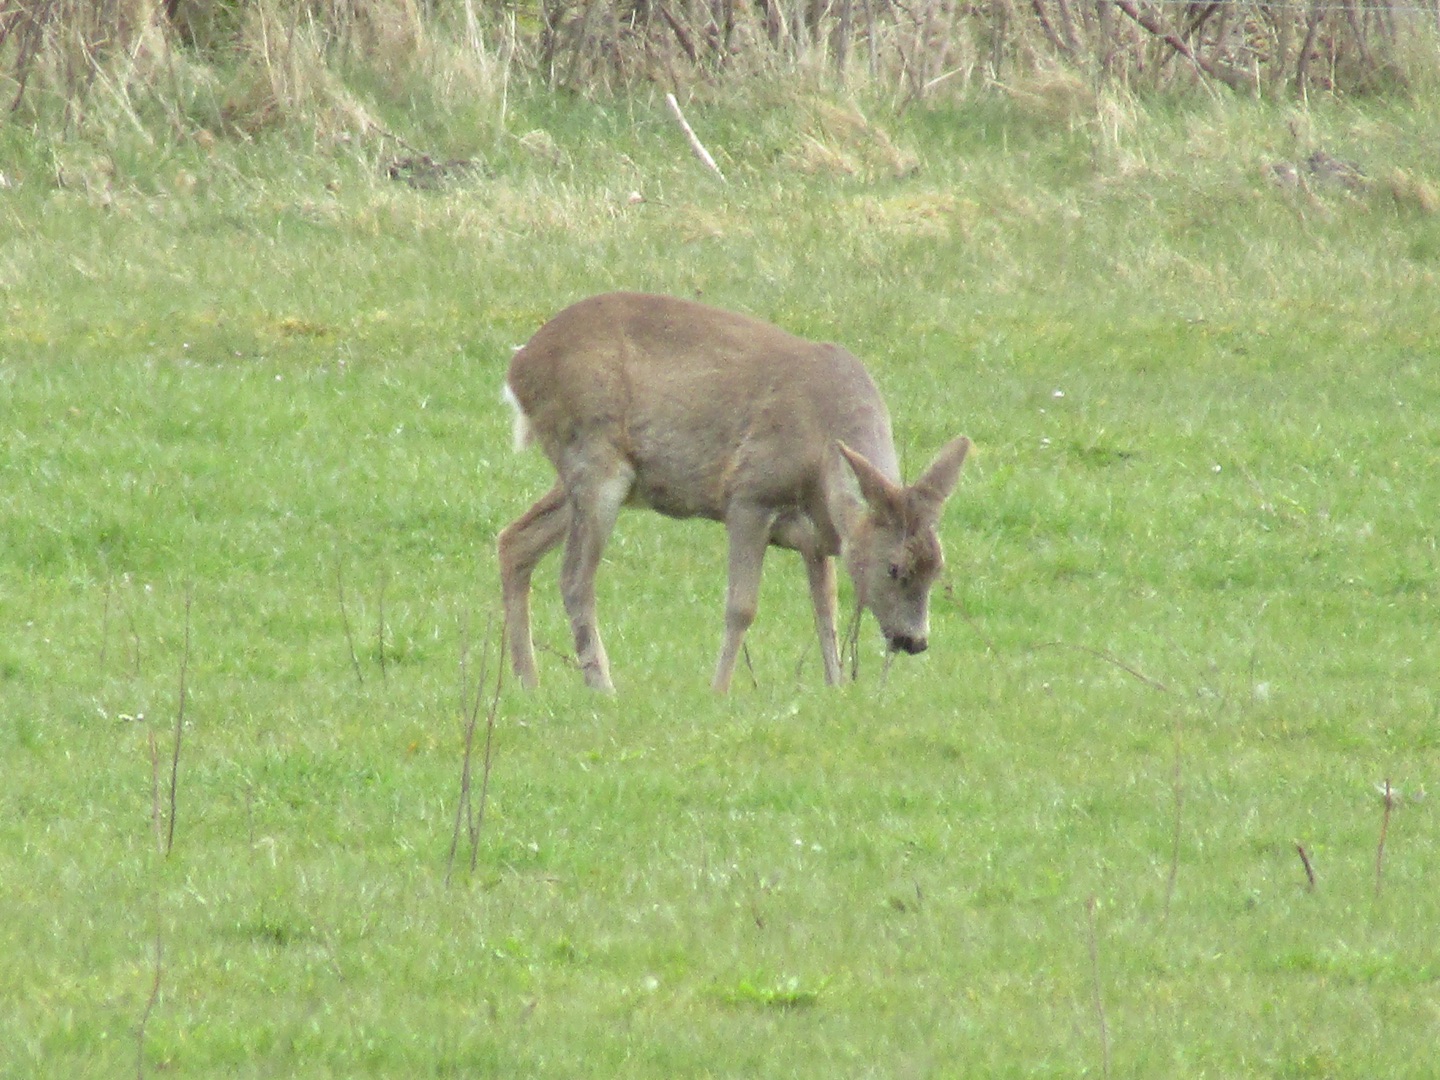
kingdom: Animalia
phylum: Chordata
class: Mammalia
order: Artiodactyla
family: Cervidae
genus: Capreolus
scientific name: Capreolus capreolus
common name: Rådyr
